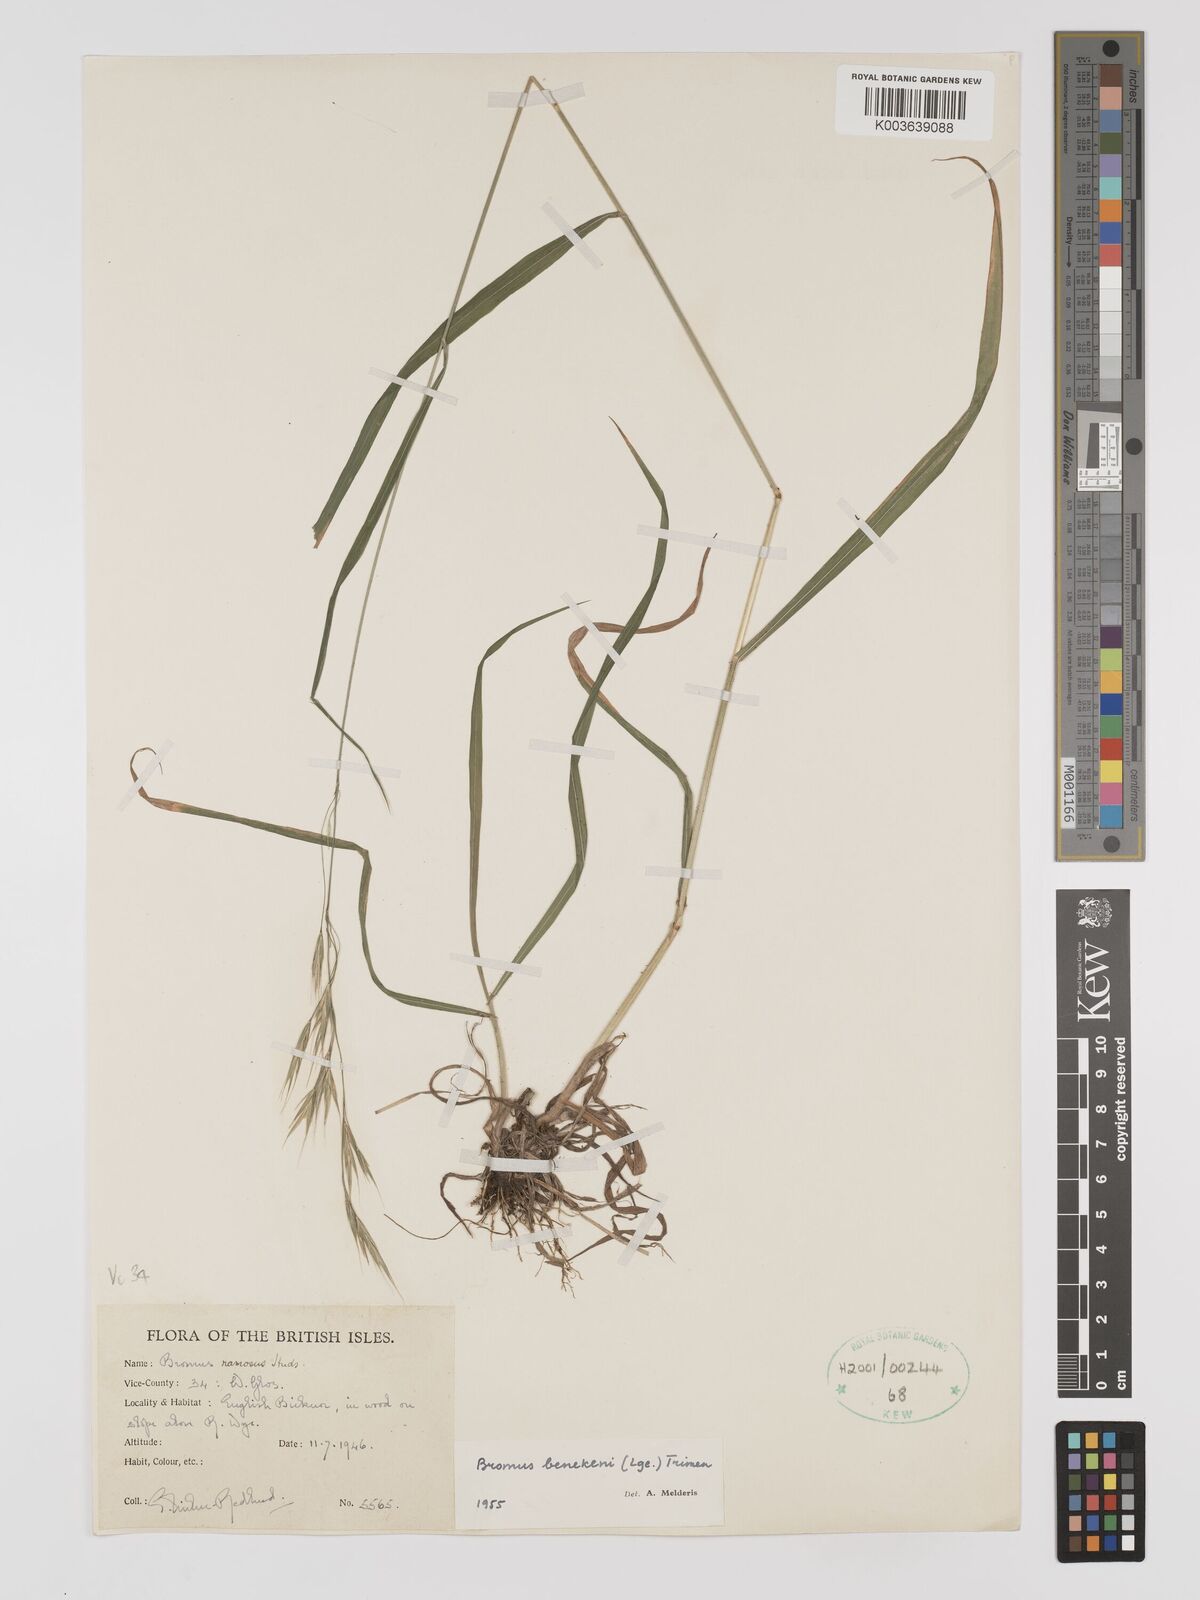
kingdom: Plantae
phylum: Tracheophyta
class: Liliopsida
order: Poales
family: Poaceae
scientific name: Poaceae
